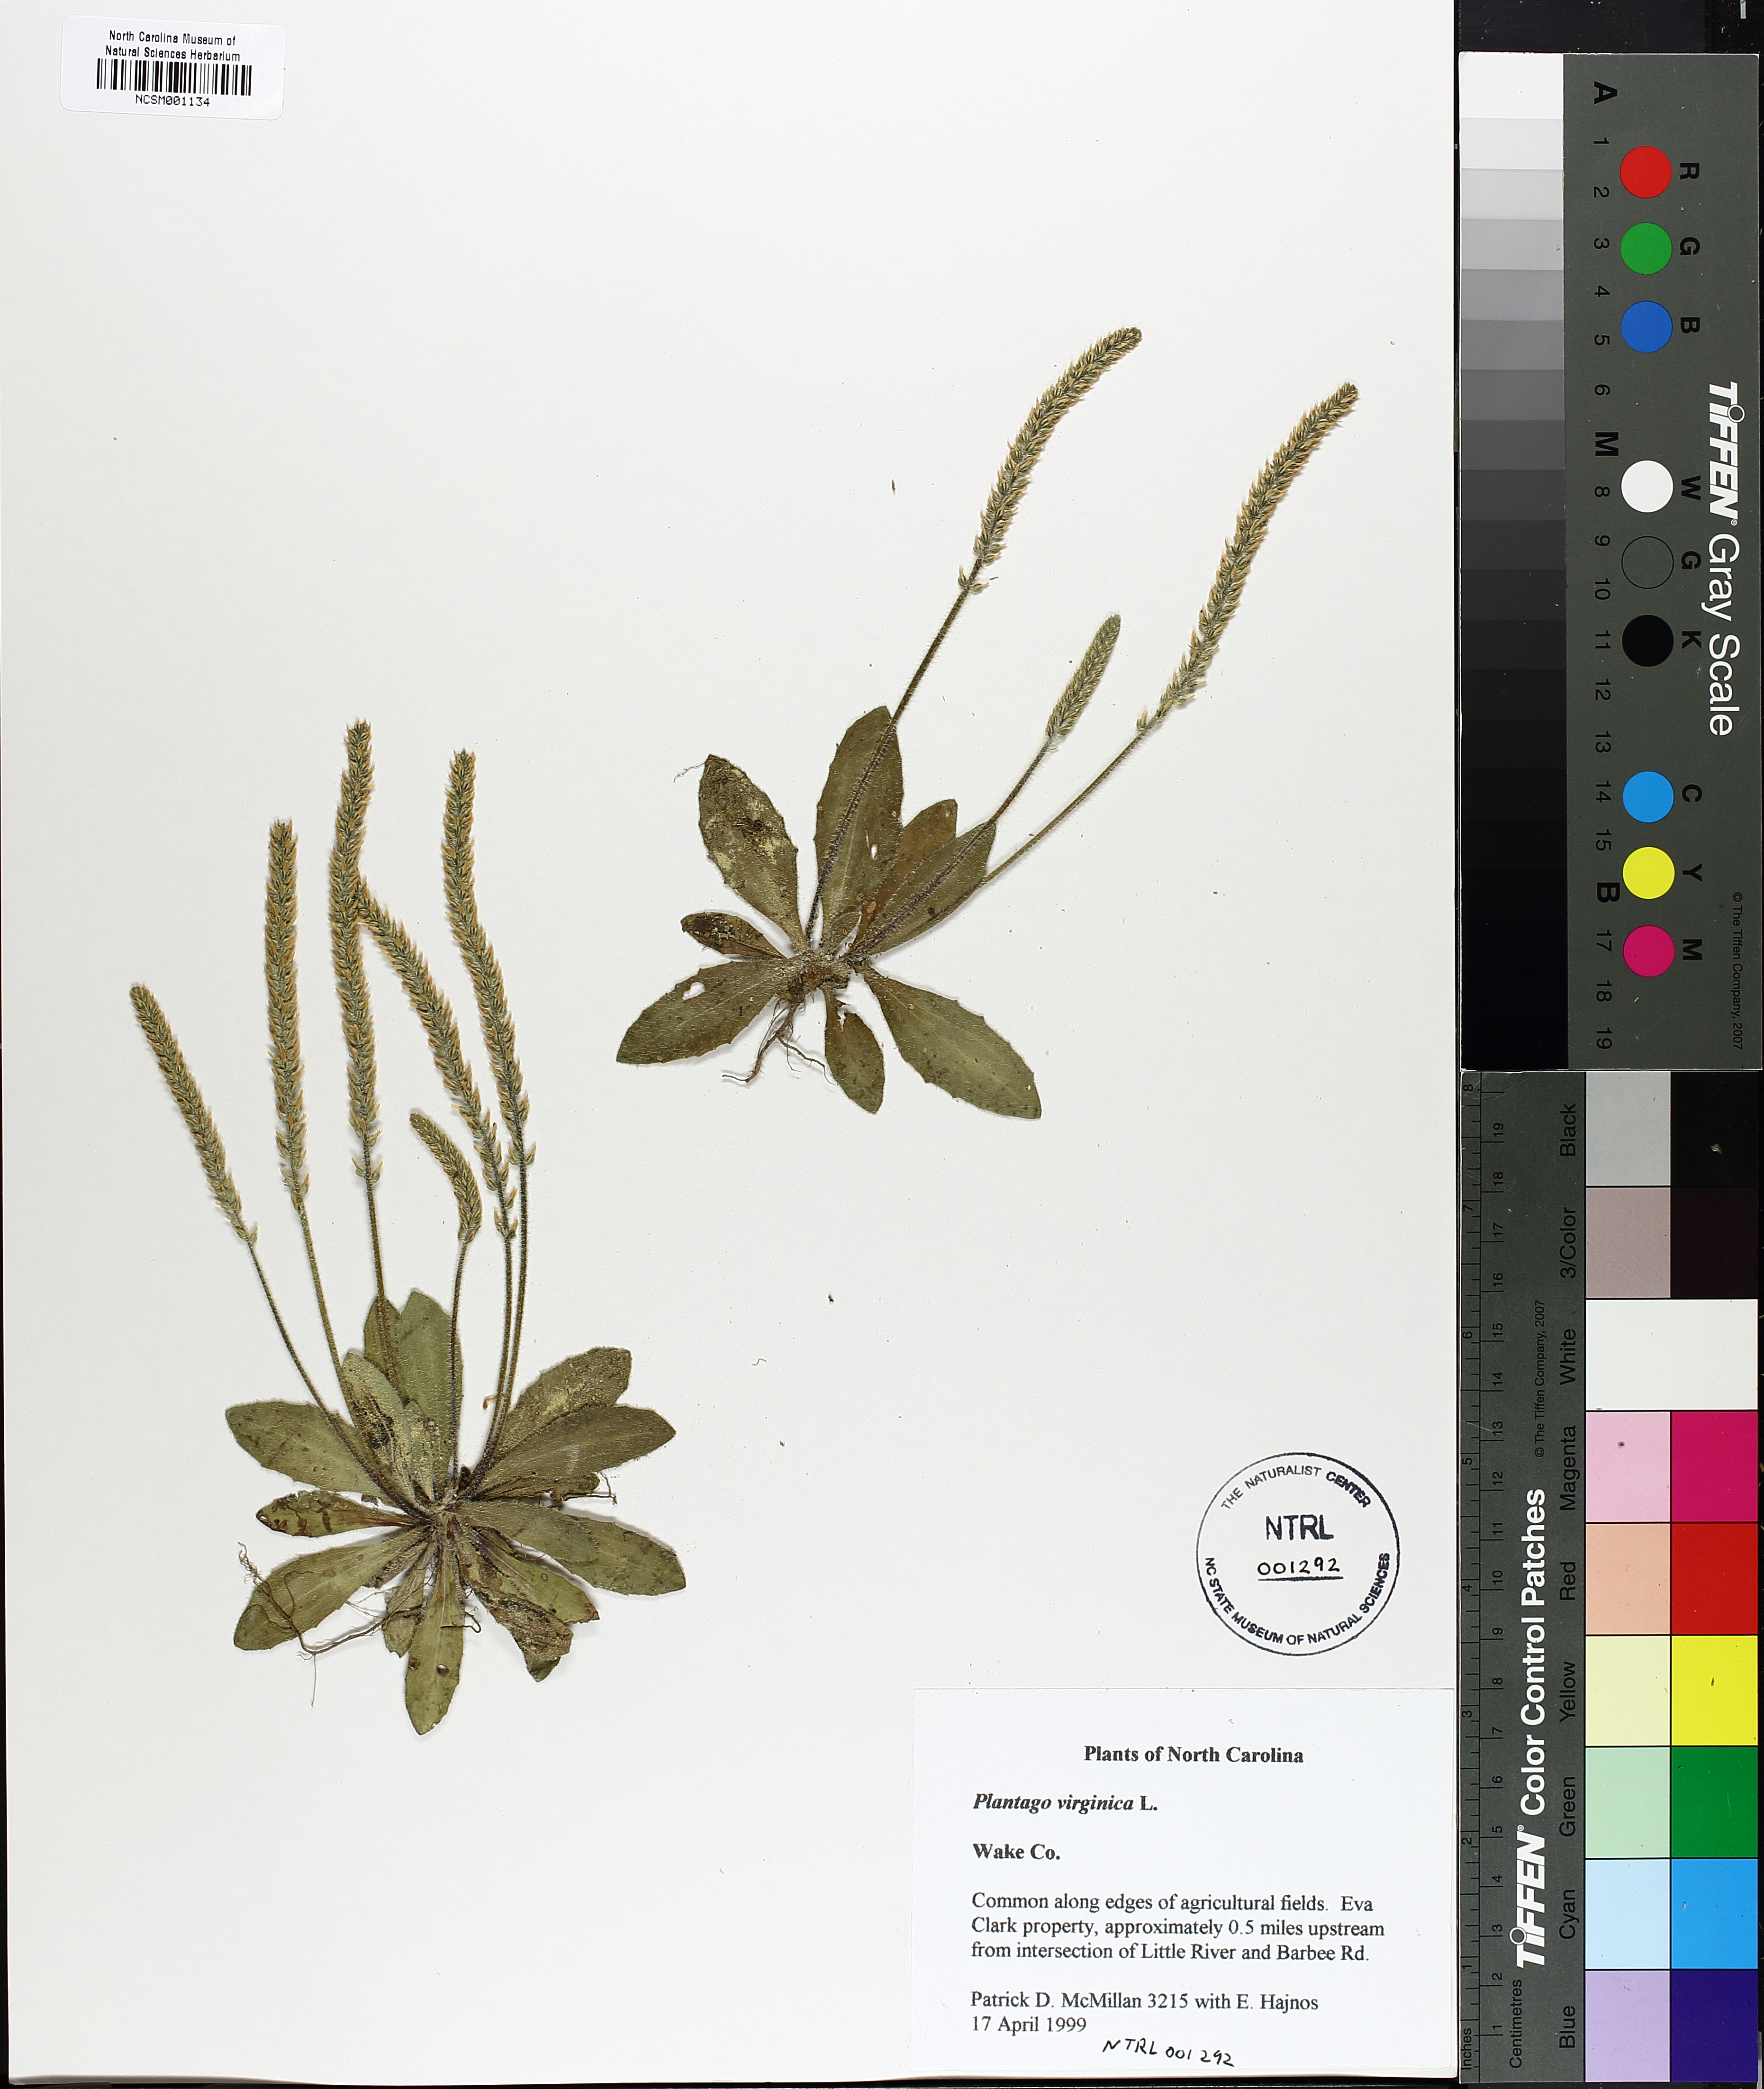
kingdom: Plantae
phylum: Tracheophyta
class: Magnoliopsida
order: Lamiales
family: Plantaginaceae
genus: Plantago
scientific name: Plantago virginica
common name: Hoary plantain
